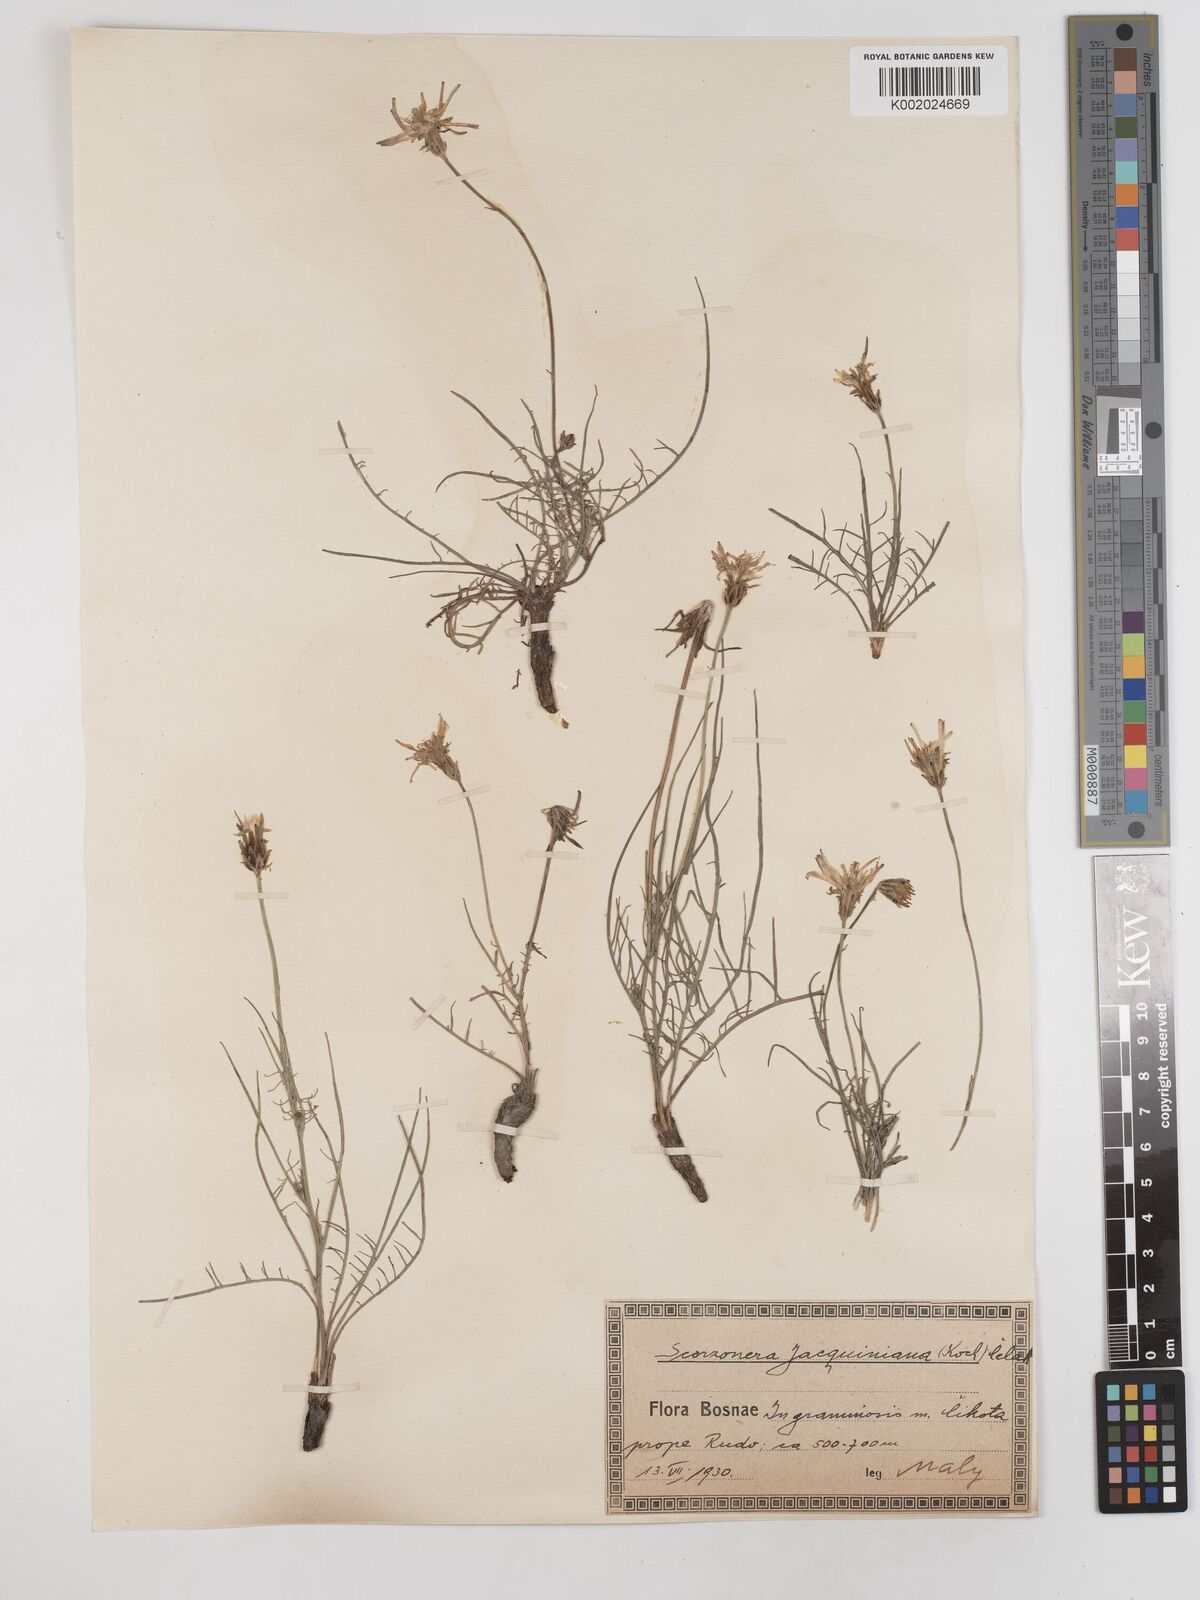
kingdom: Plantae
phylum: Tracheophyta
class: Magnoliopsida
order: Asterales
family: Asteraceae
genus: Scorzonera
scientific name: Scorzonera cana
